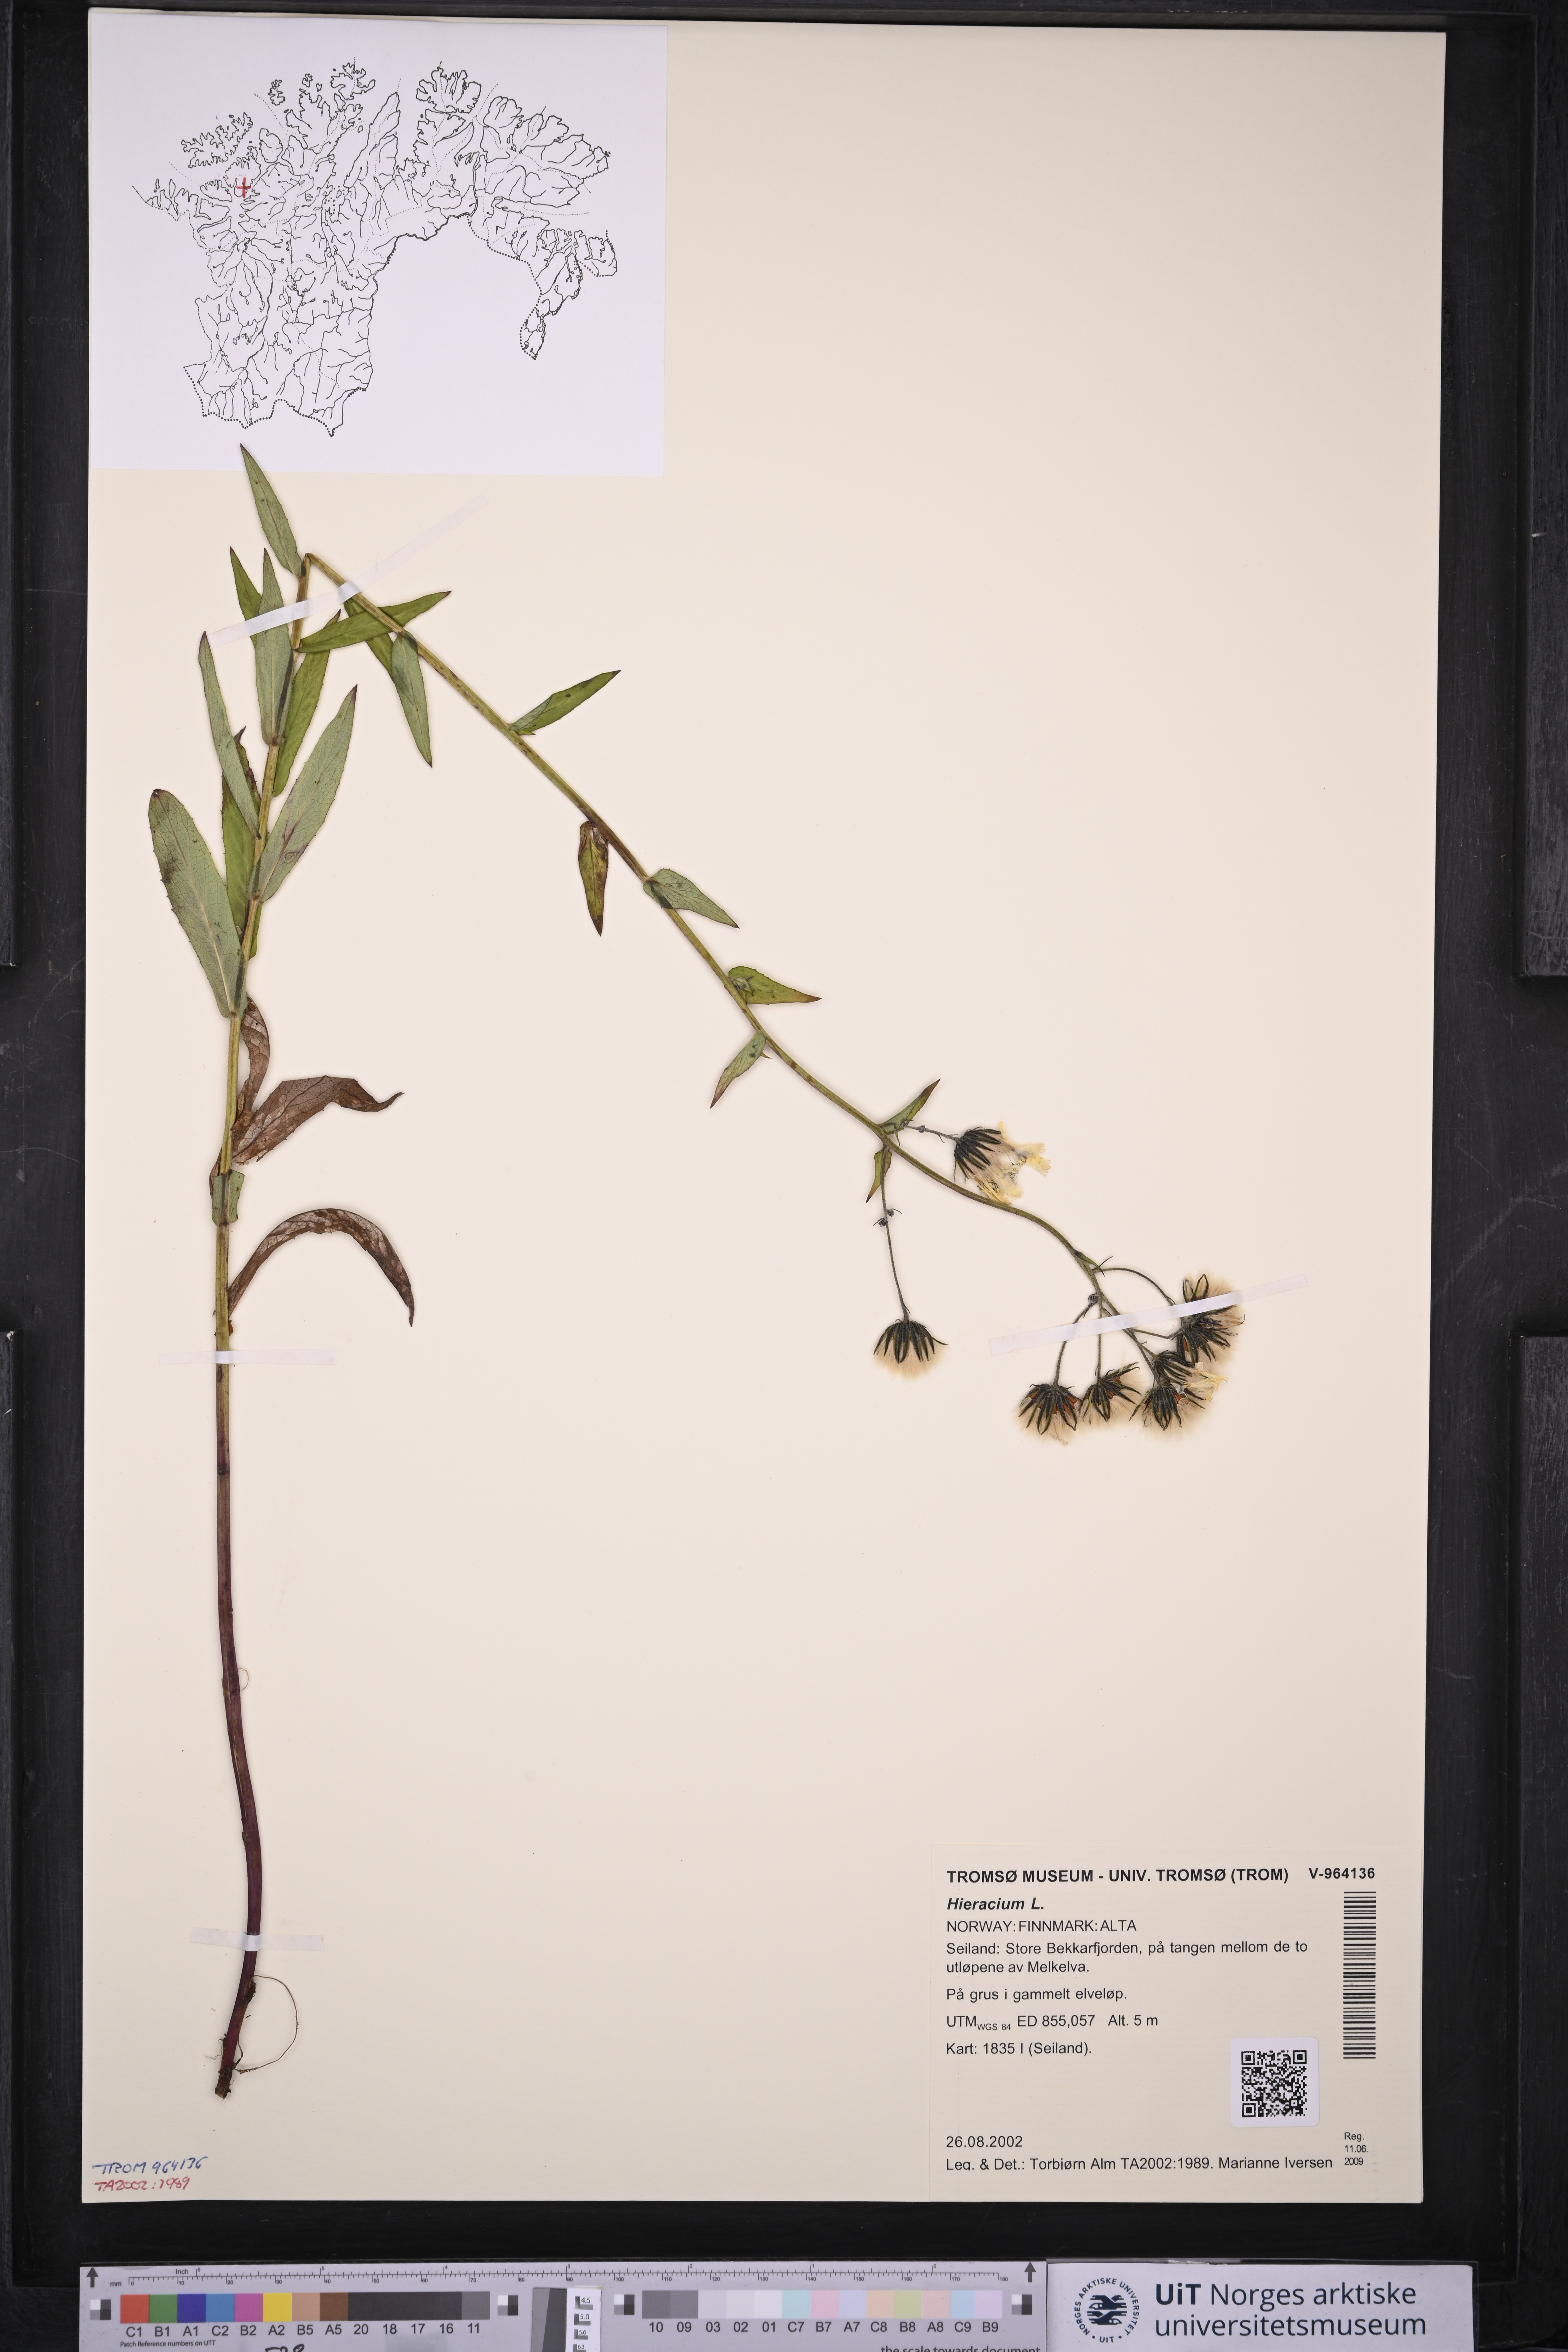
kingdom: Plantae
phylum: Tracheophyta
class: Magnoliopsida
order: Asterales
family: Asteraceae
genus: Hieracium
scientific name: Hieracium
